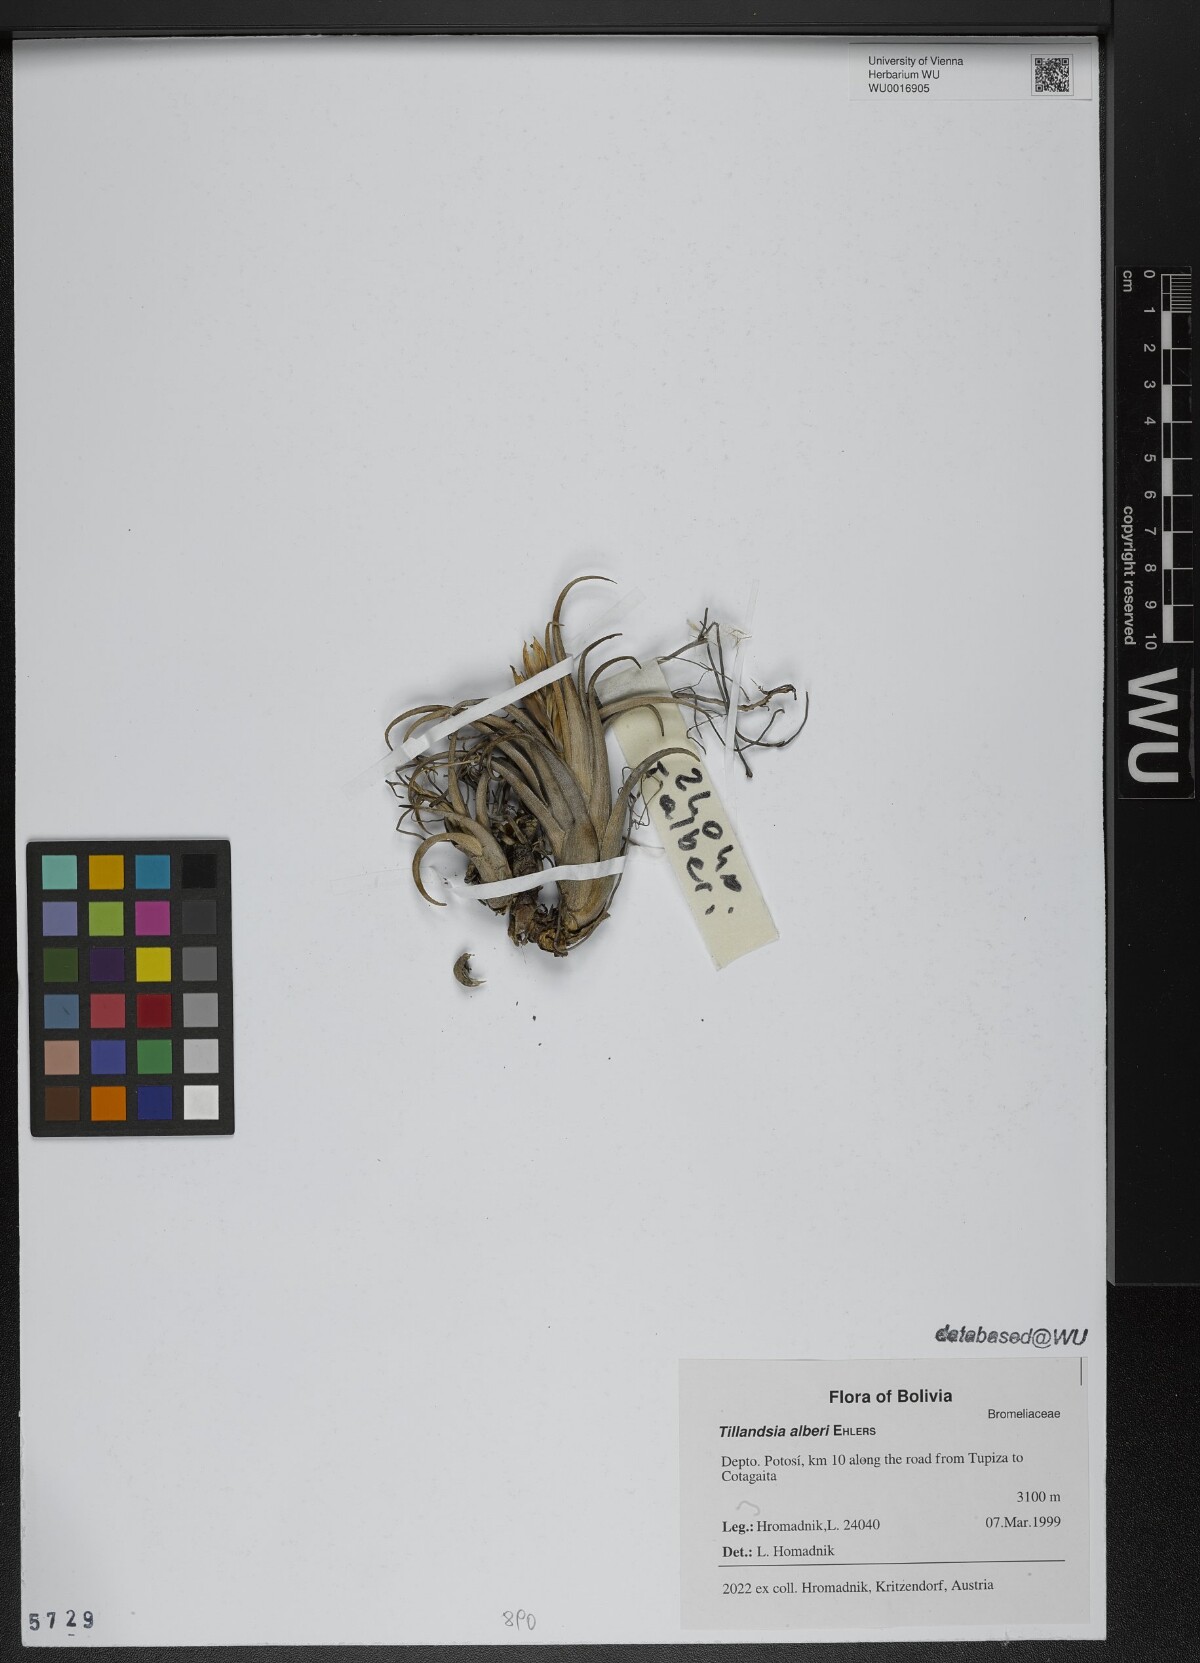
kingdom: Plantae
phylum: Tracheophyta
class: Liliopsida
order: Poales
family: Bromeliaceae
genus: Tillandsia
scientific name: Tillandsia muhriae
